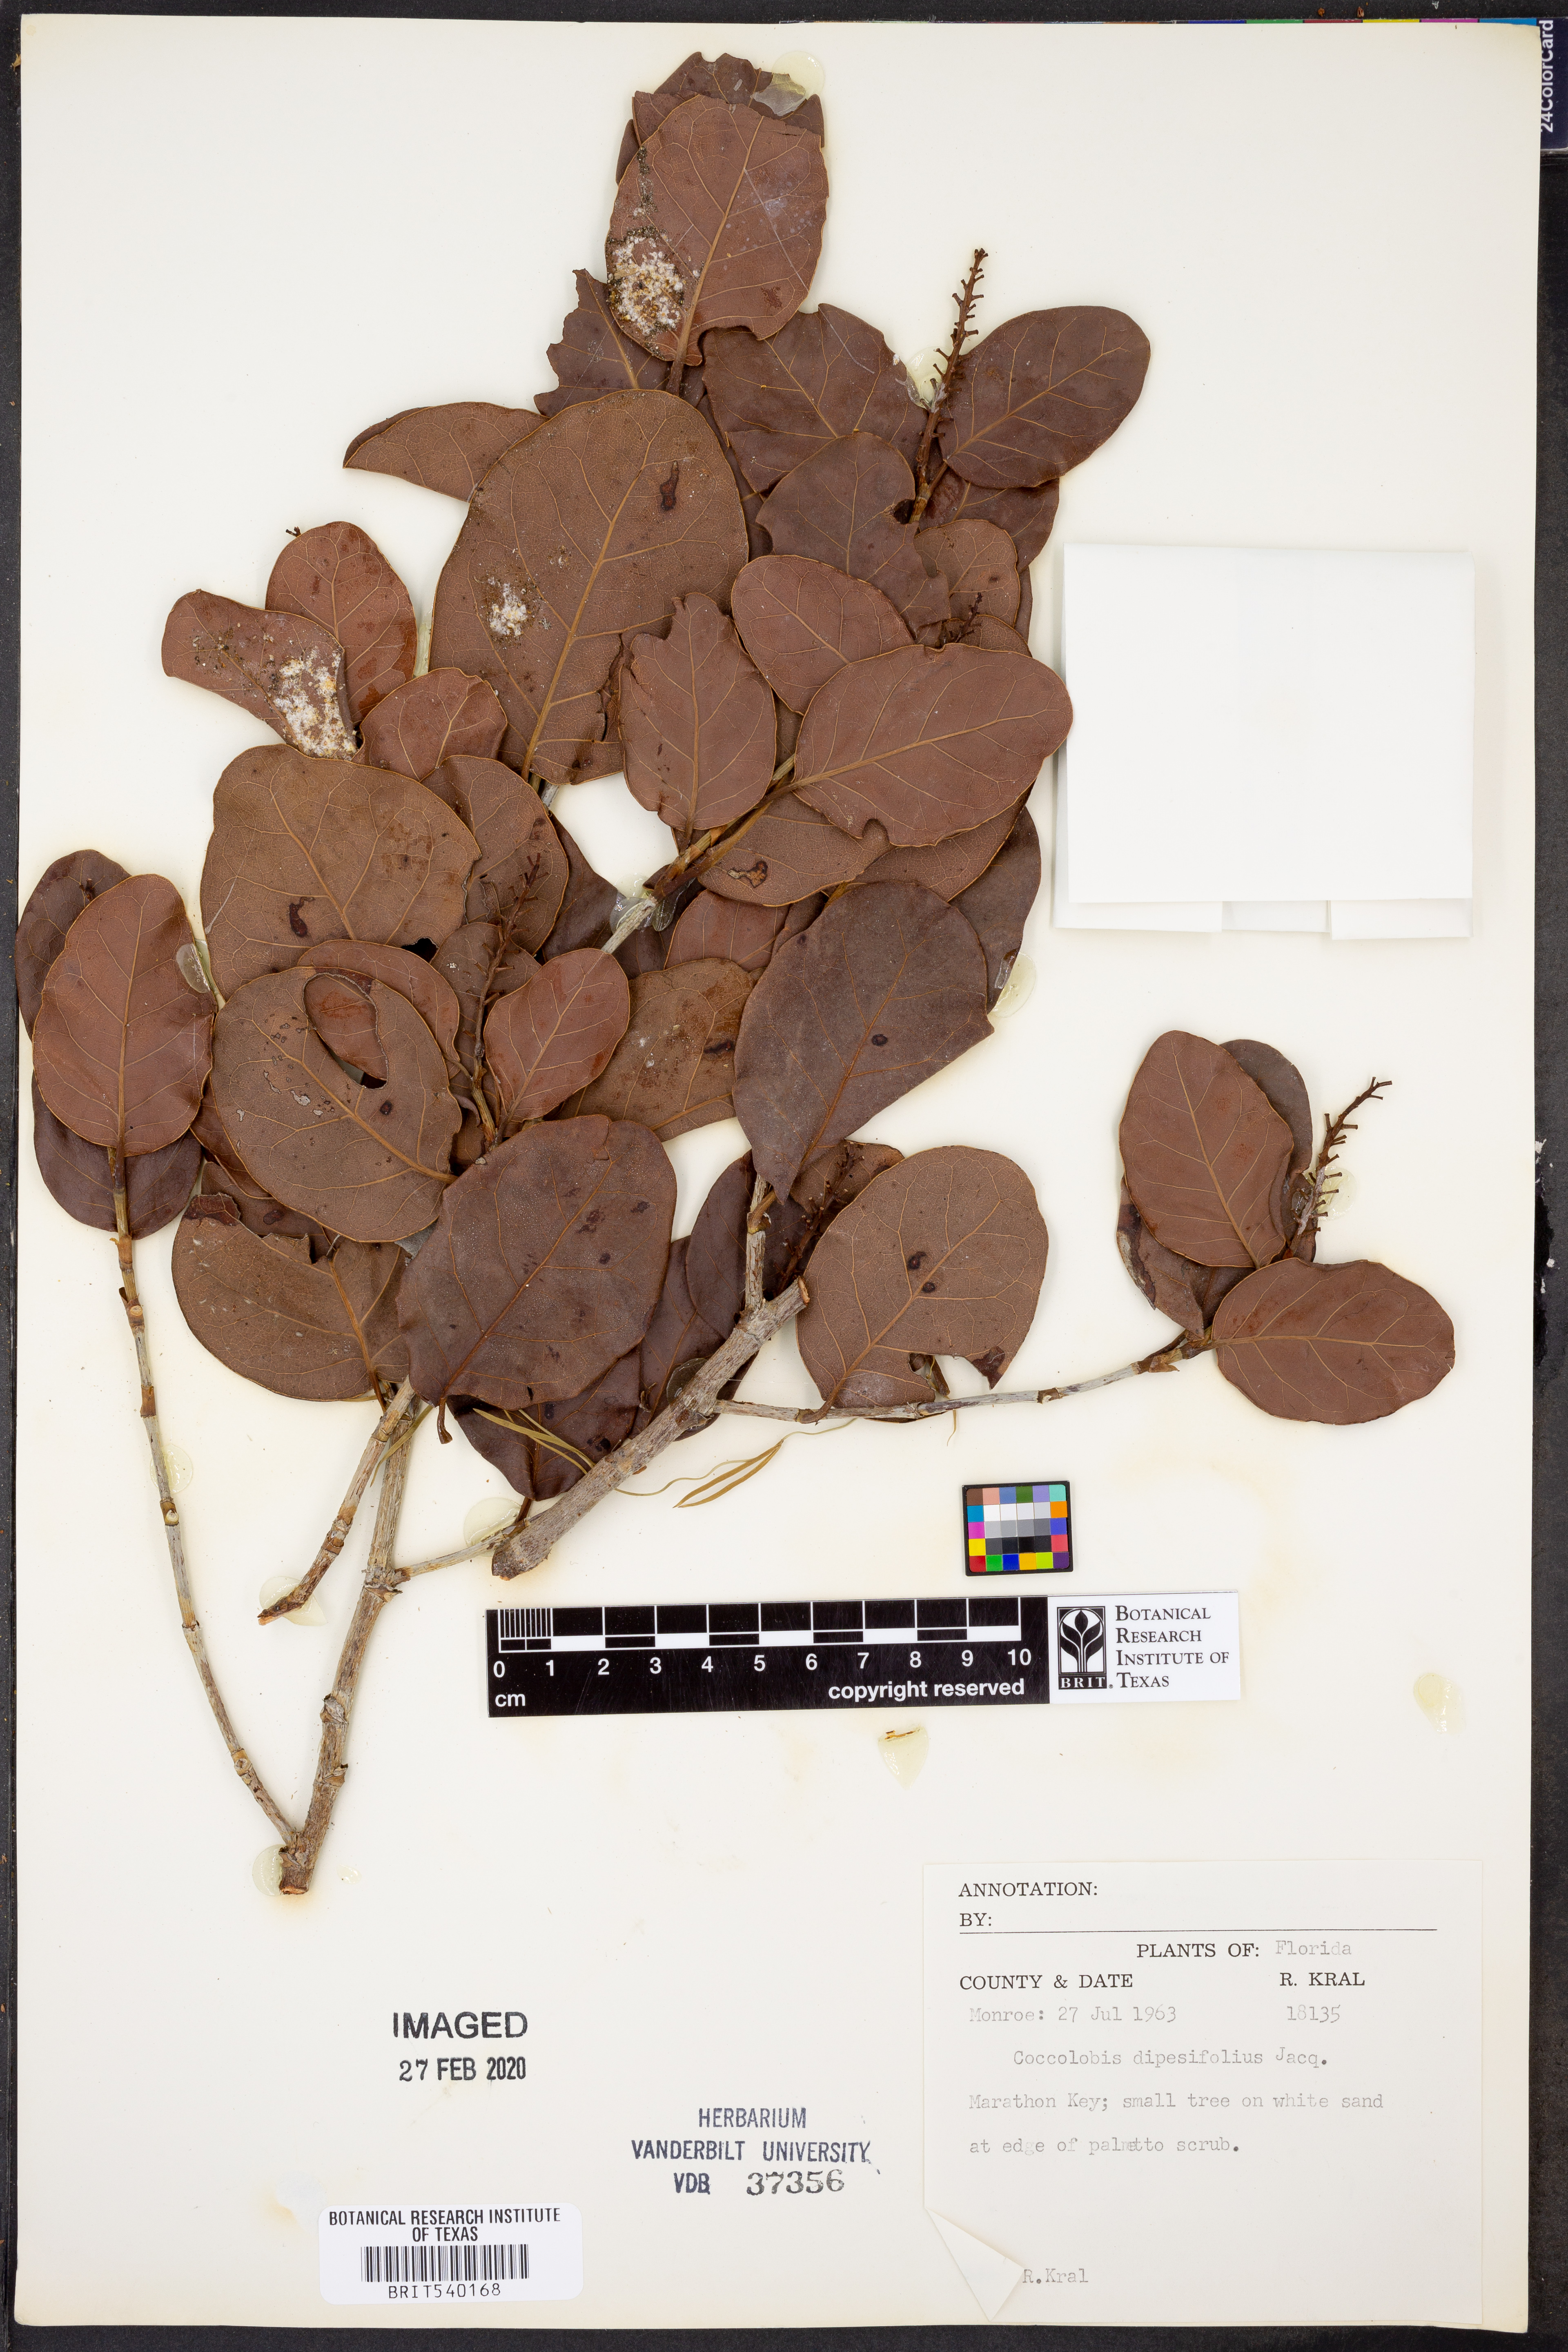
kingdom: Plantae
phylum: Tracheophyta
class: Magnoliopsida
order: Caryophyllales
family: Polygonaceae
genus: Coccoloba
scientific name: Coccoloba diversifolia
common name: Pigeon-plum
